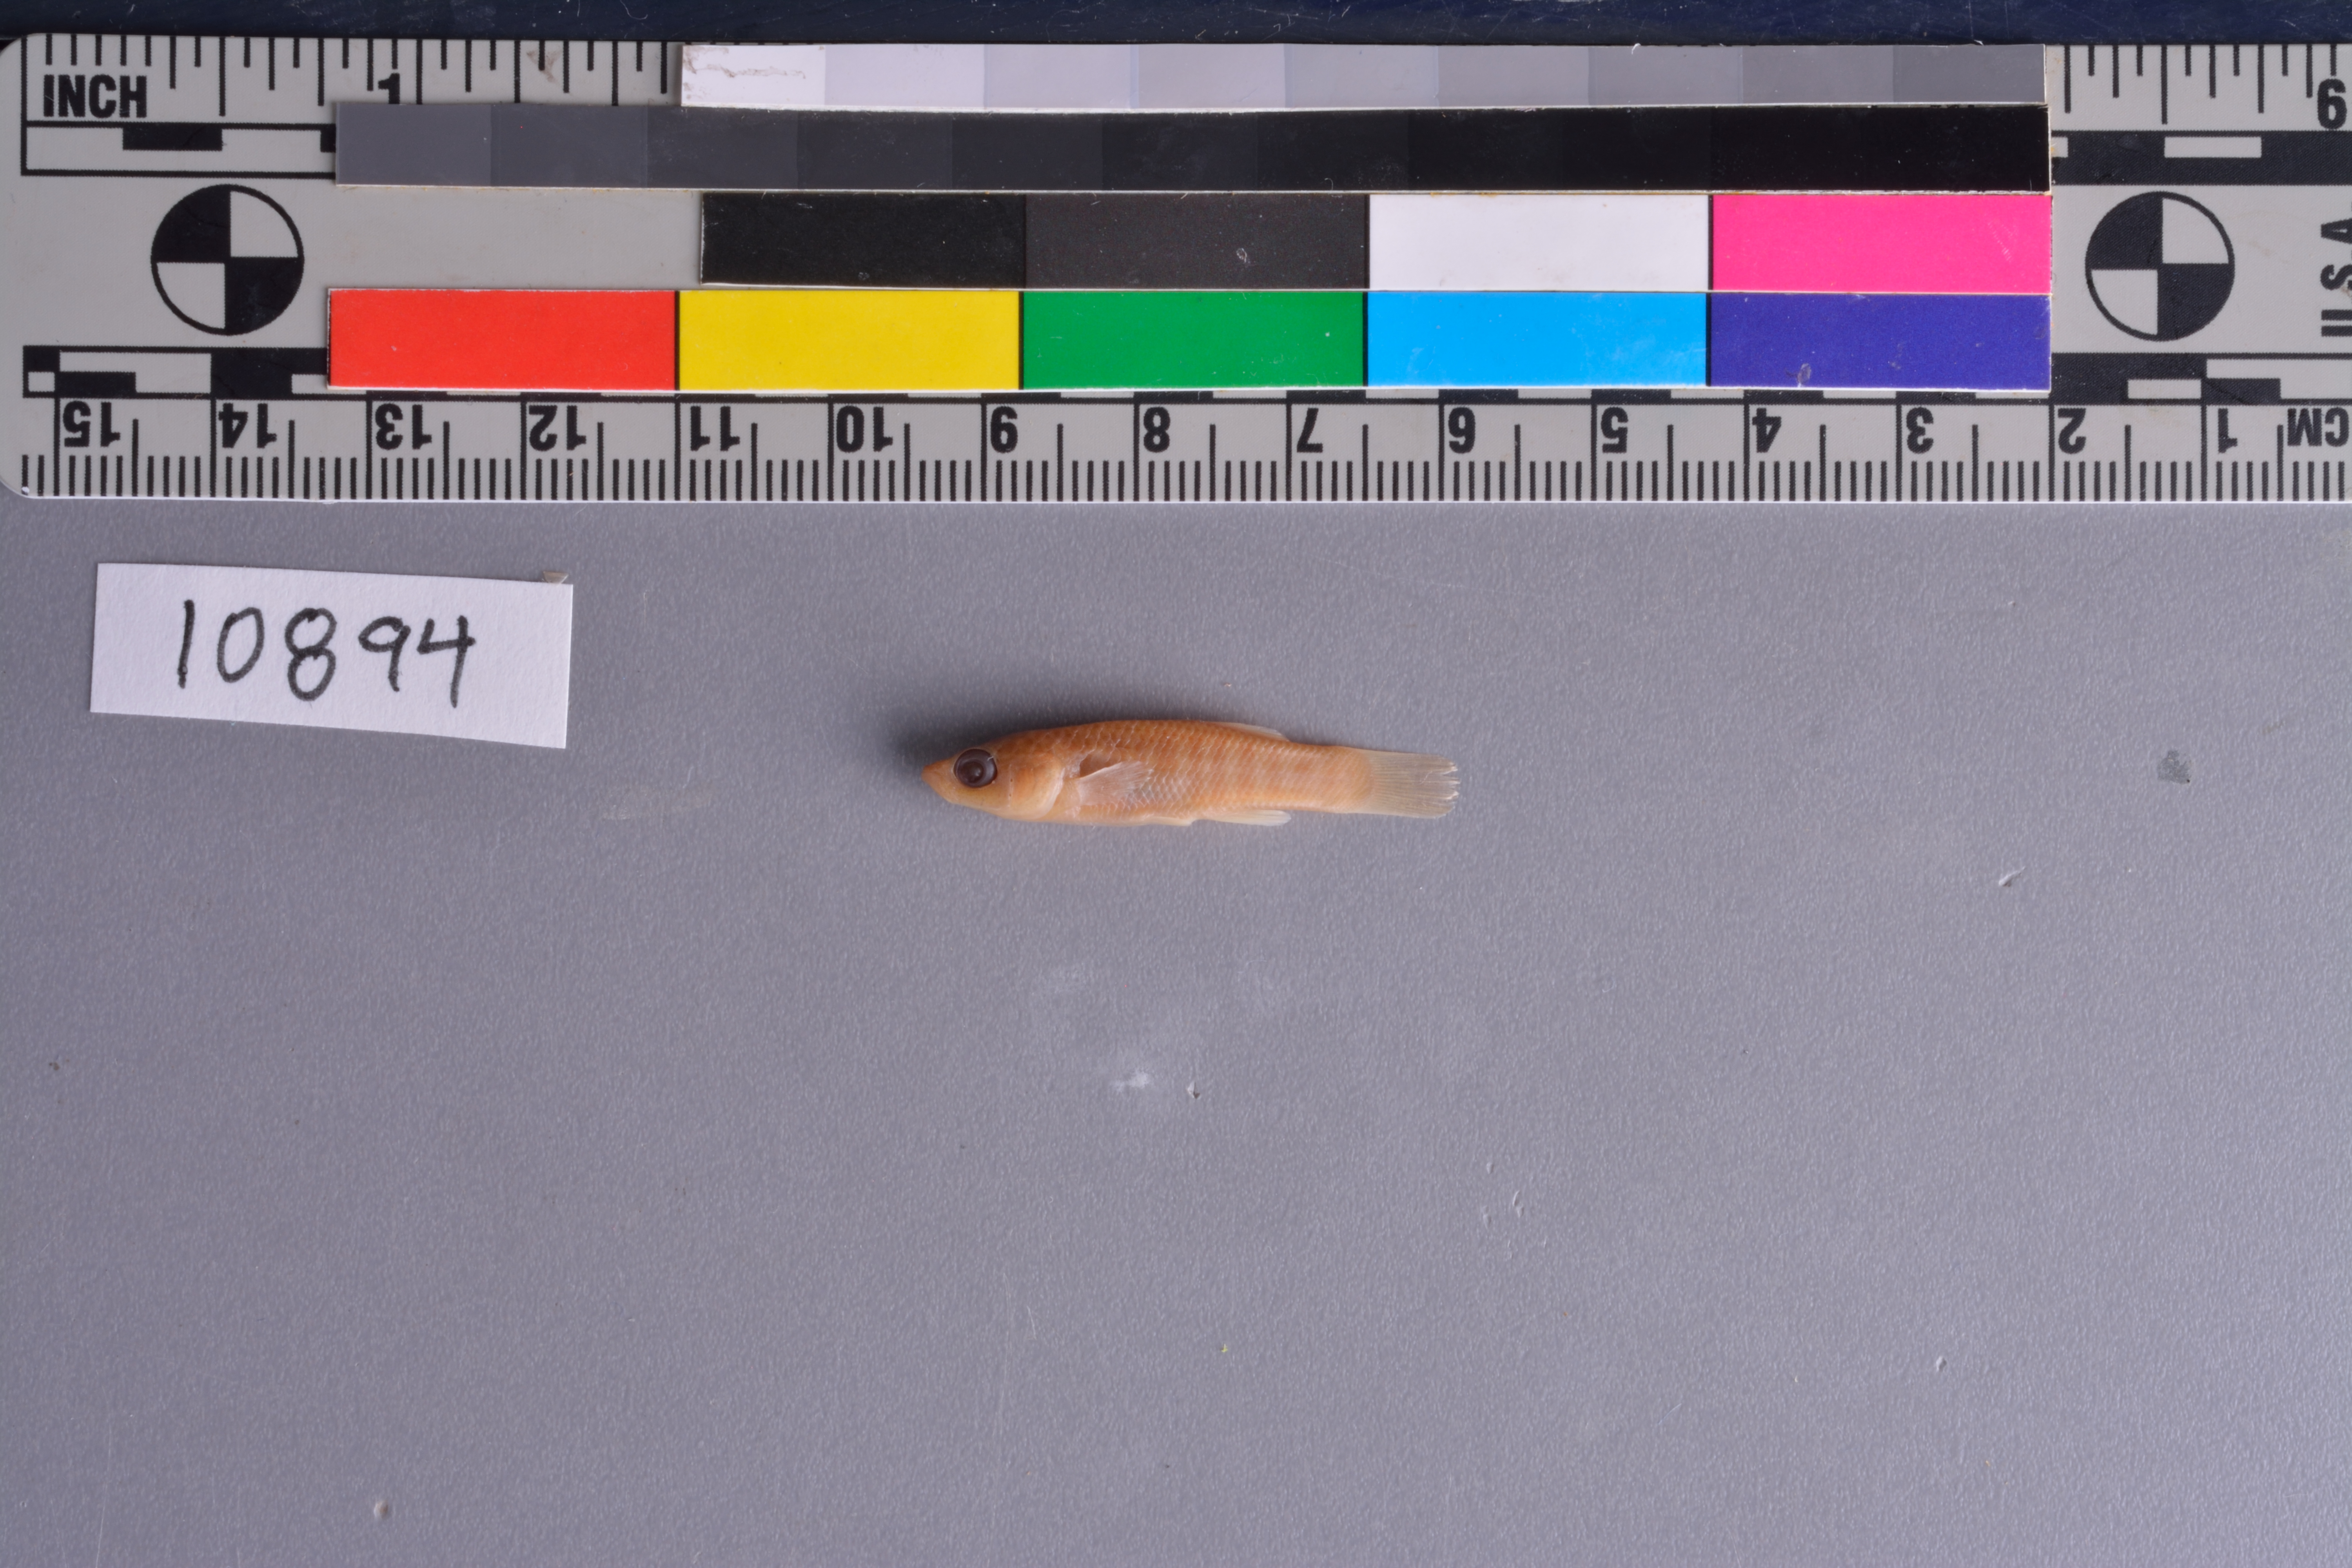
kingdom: Animalia
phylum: Chordata
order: Cyprinodontiformes
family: Fundulidae
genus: Fundulus
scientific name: Fundulus grandis
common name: Gulf killifish
